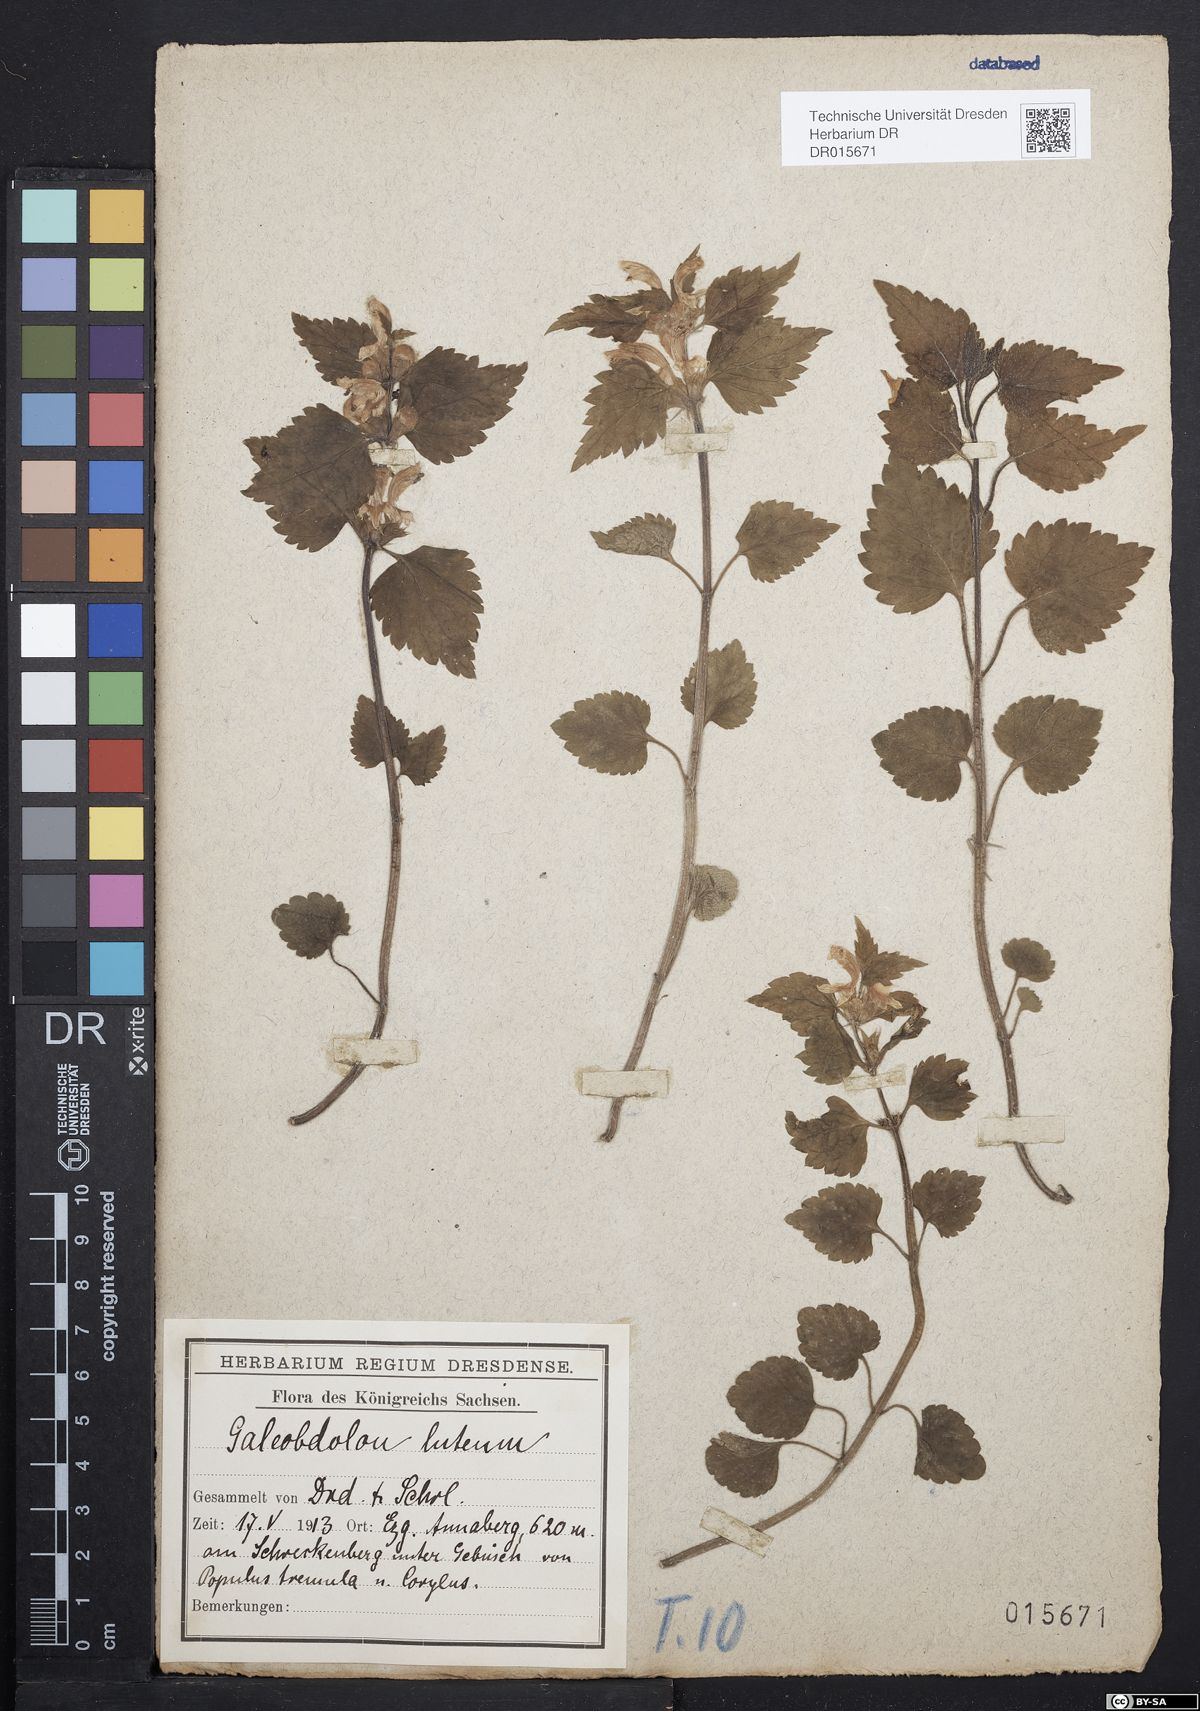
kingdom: Plantae
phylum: Tracheophyta
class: Magnoliopsida
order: Lamiales
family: Lamiaceae
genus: Lamium
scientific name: Lamium galeobdolon
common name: Yellow archangel
